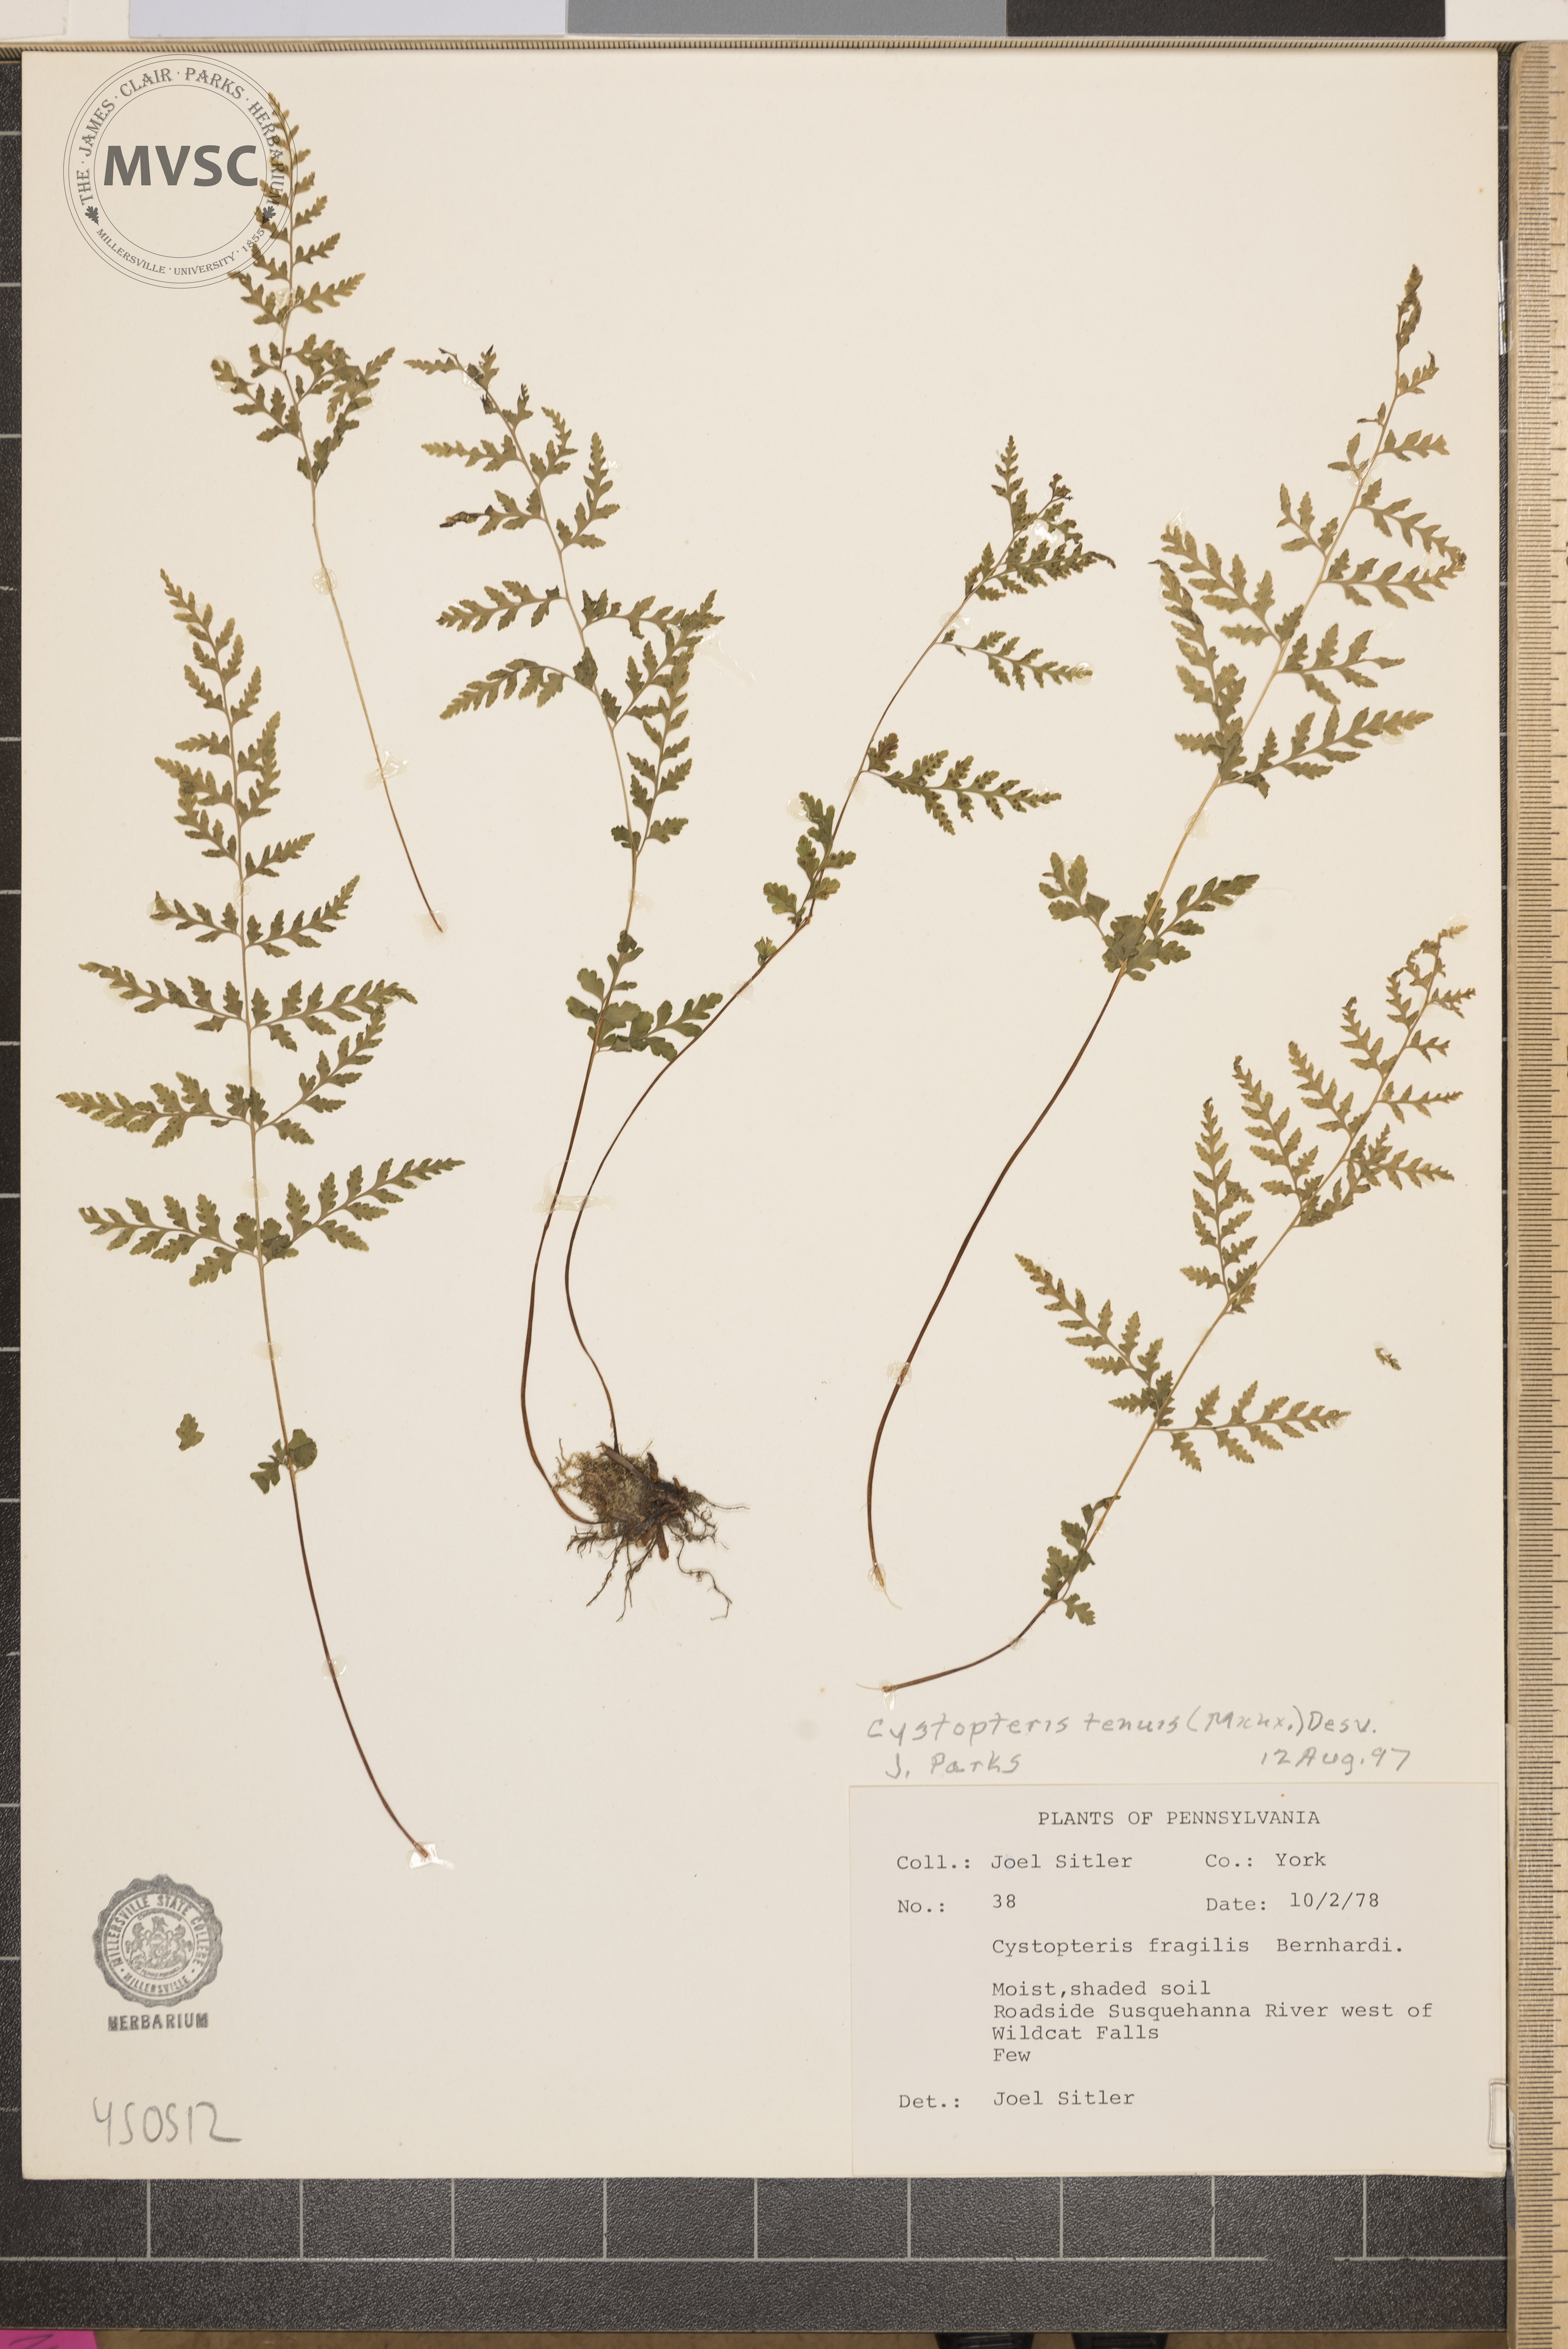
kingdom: Plantae
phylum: Tracheophyta
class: Polypodiopsida
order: Polypodiales
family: Cystopteridaceae
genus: Cystopteris
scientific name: Cystopteris tenuis
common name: Mackay's brittle fern
